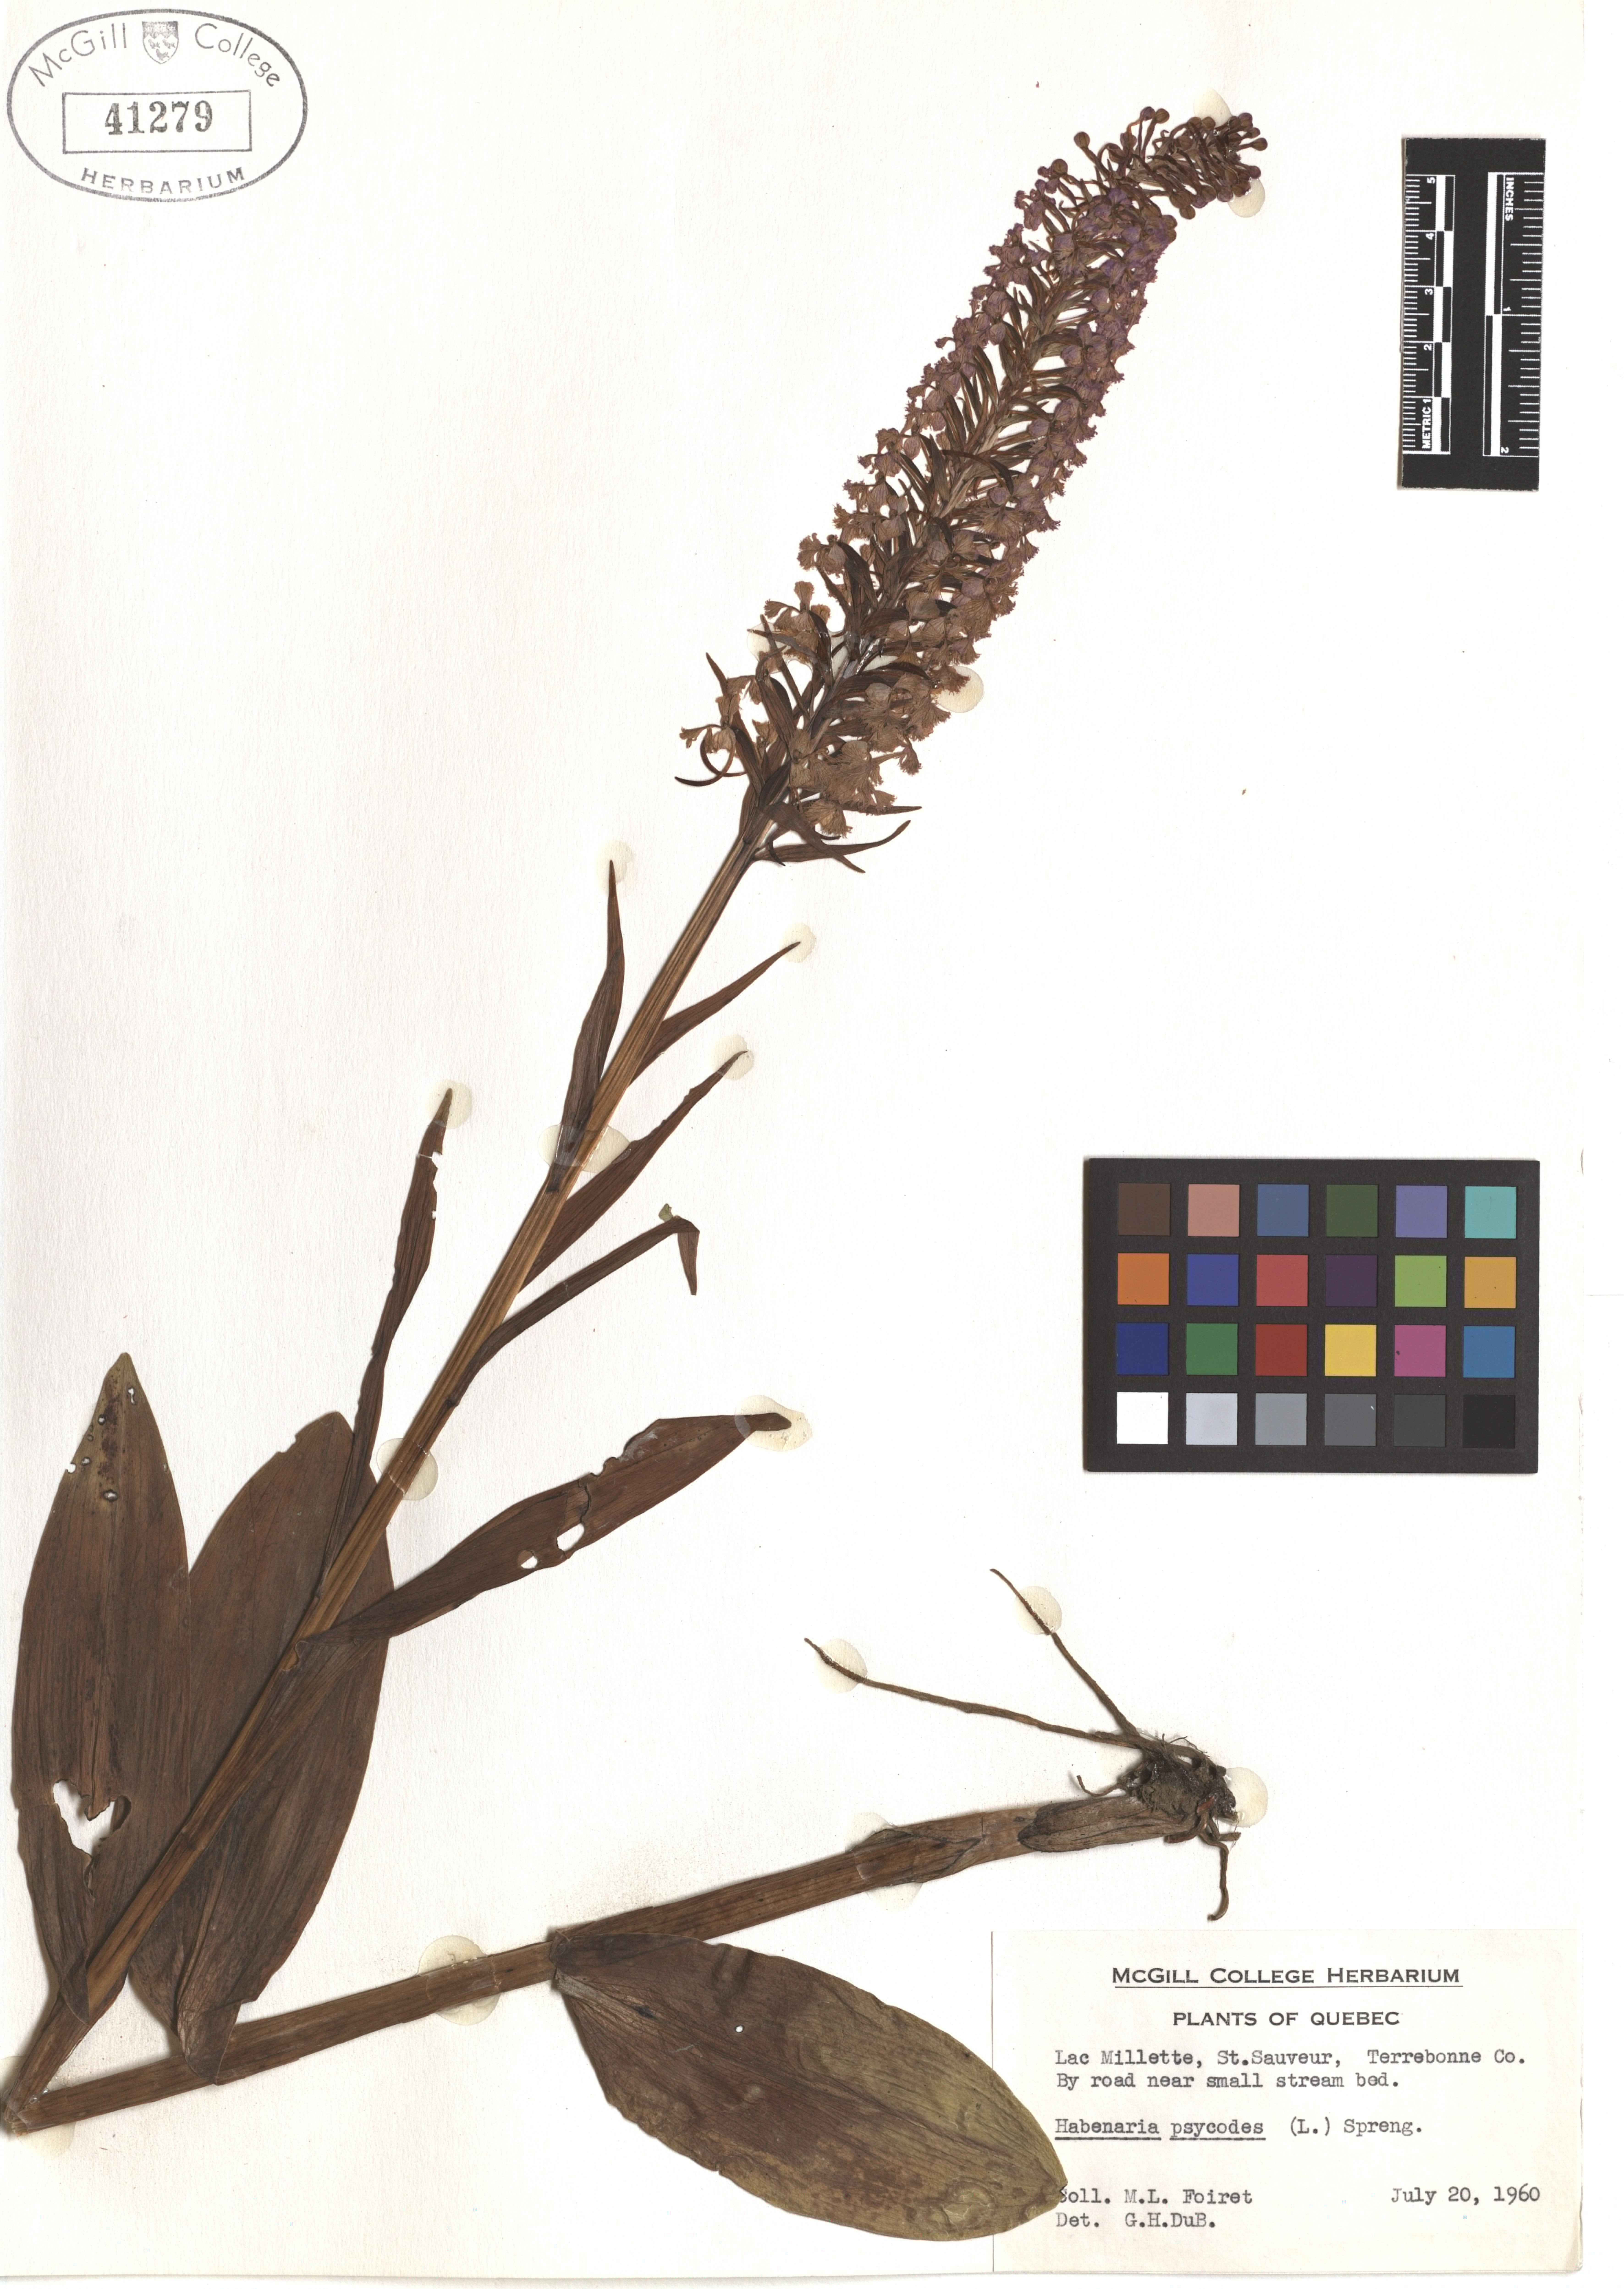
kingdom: Plantae
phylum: Tracheophyta
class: Liliopsida
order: Asparagales
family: Orchidaceae
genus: Platanthera
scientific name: Platanthera psycodes
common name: Lesser purple fringed orchid
